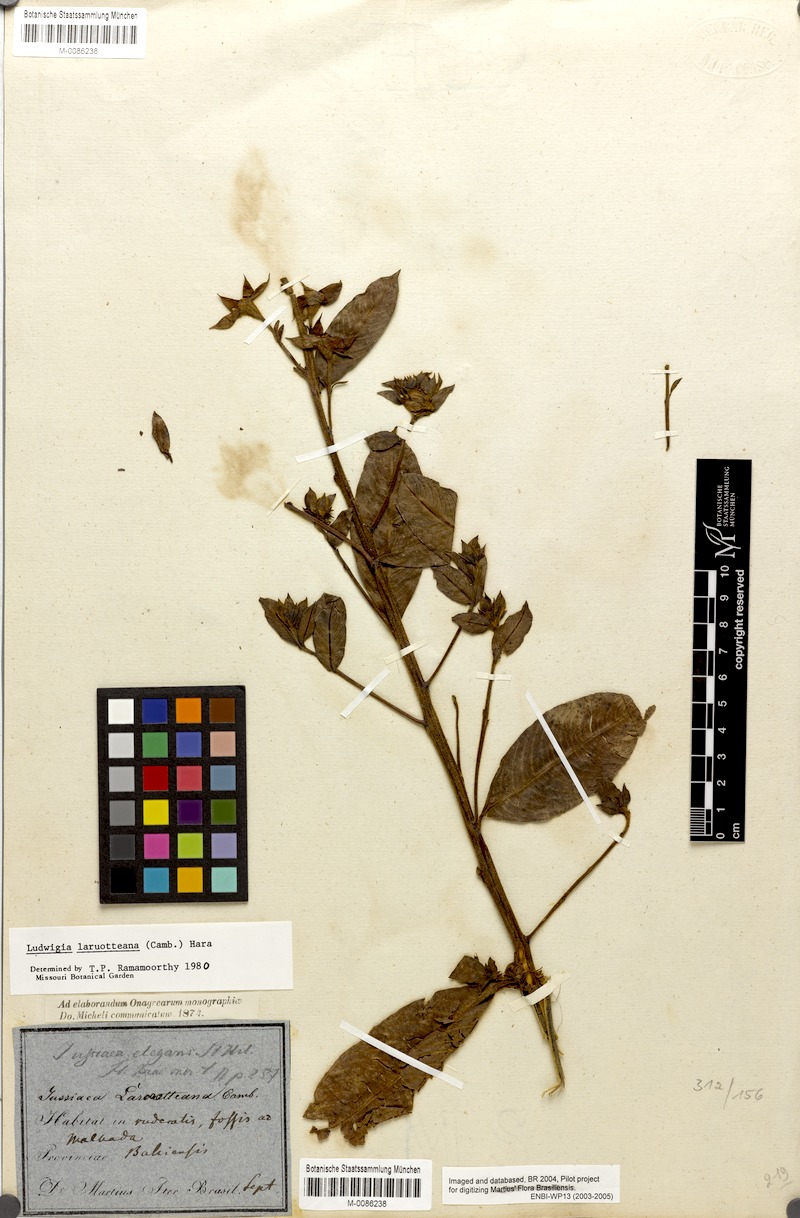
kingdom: Plantae
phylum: Tracheophyta
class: Magnoliopsida
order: Myrtales
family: Onagraceae
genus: Ludwigia
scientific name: Ludwigia laruotteana
